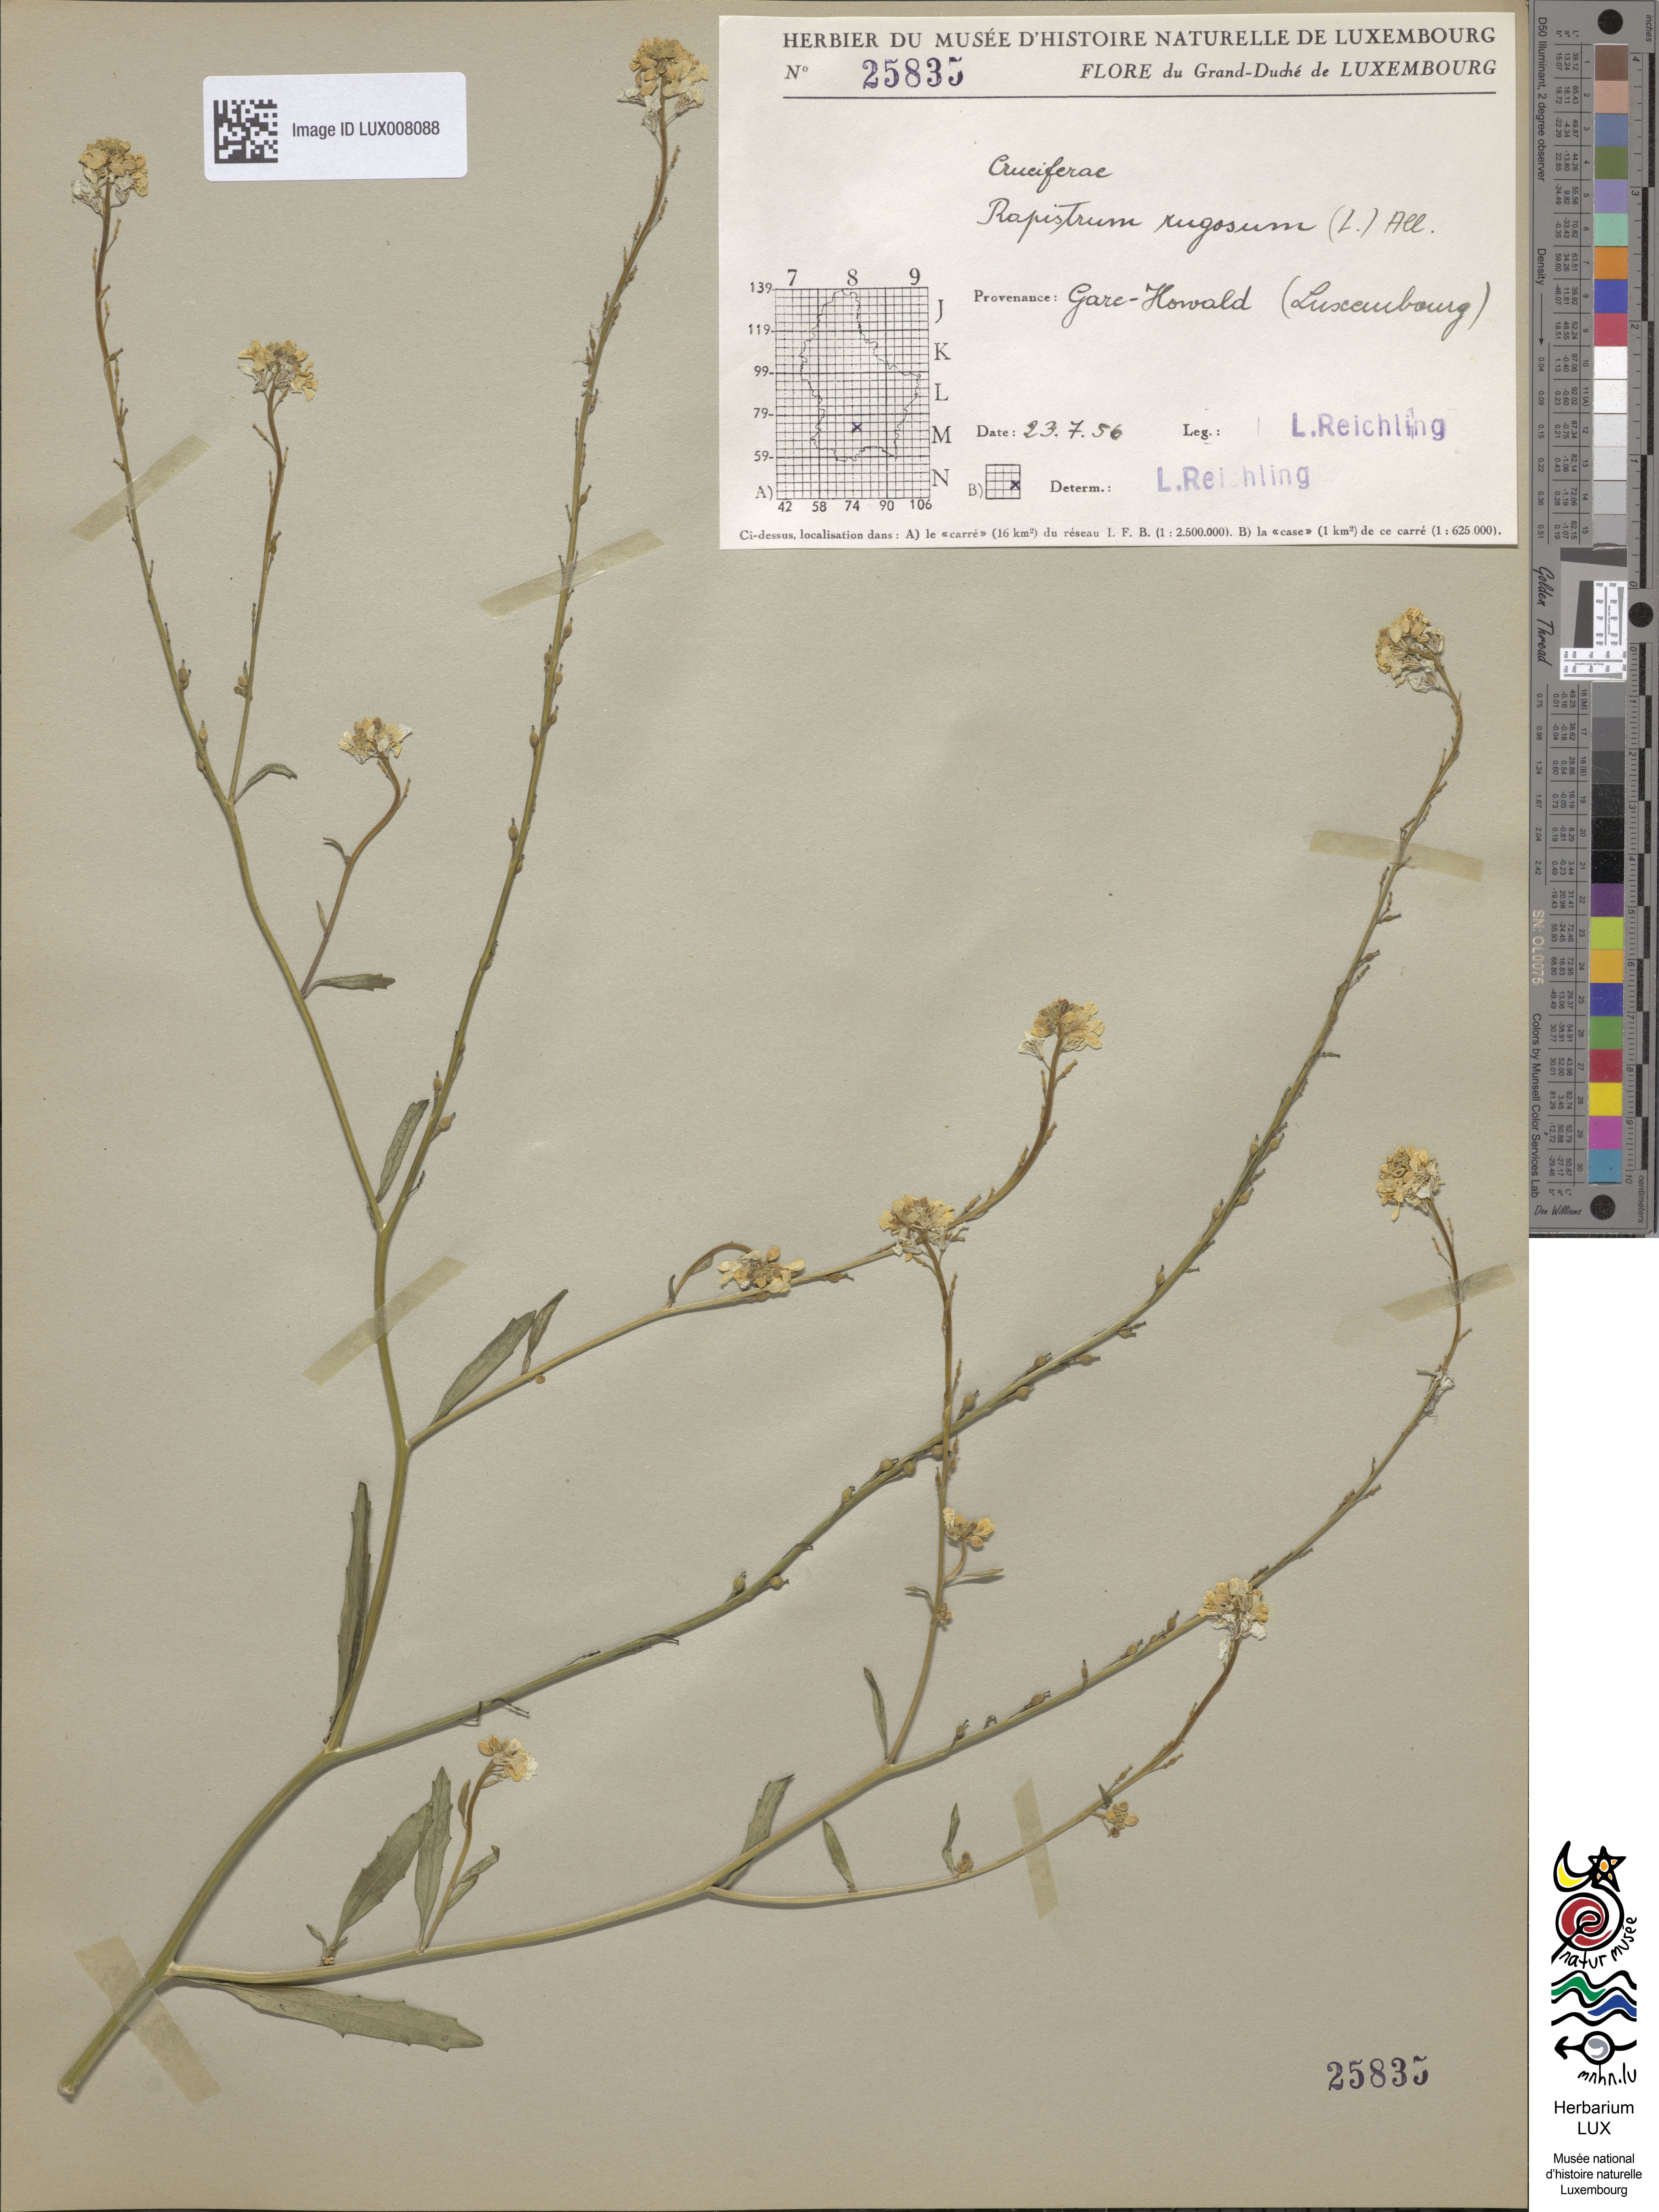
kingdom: Plantae
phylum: Tracheophyta
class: Magnoliopsida
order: Brassicales
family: Brassicaceae
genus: Rapistrum
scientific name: Rapistrum rugosum
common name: Annual bastardcabbage
